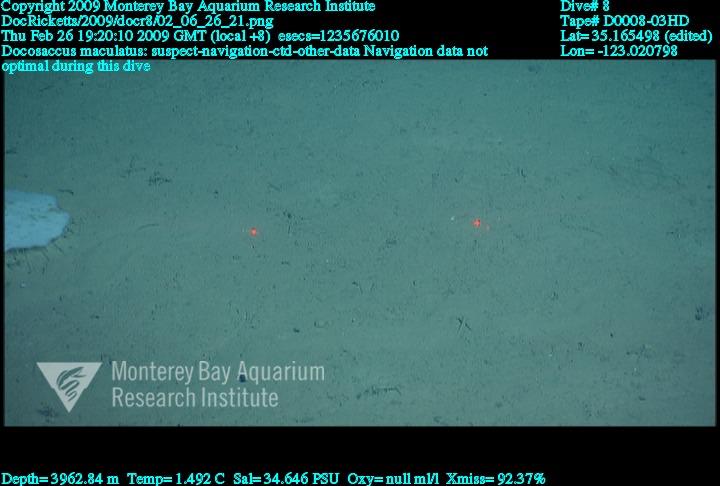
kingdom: Animalia
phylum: Porifera
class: Hexactinellida
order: Lyssacinosida
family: Euplectellidae
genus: Docosaccus
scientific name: Docosaccus maculatus
